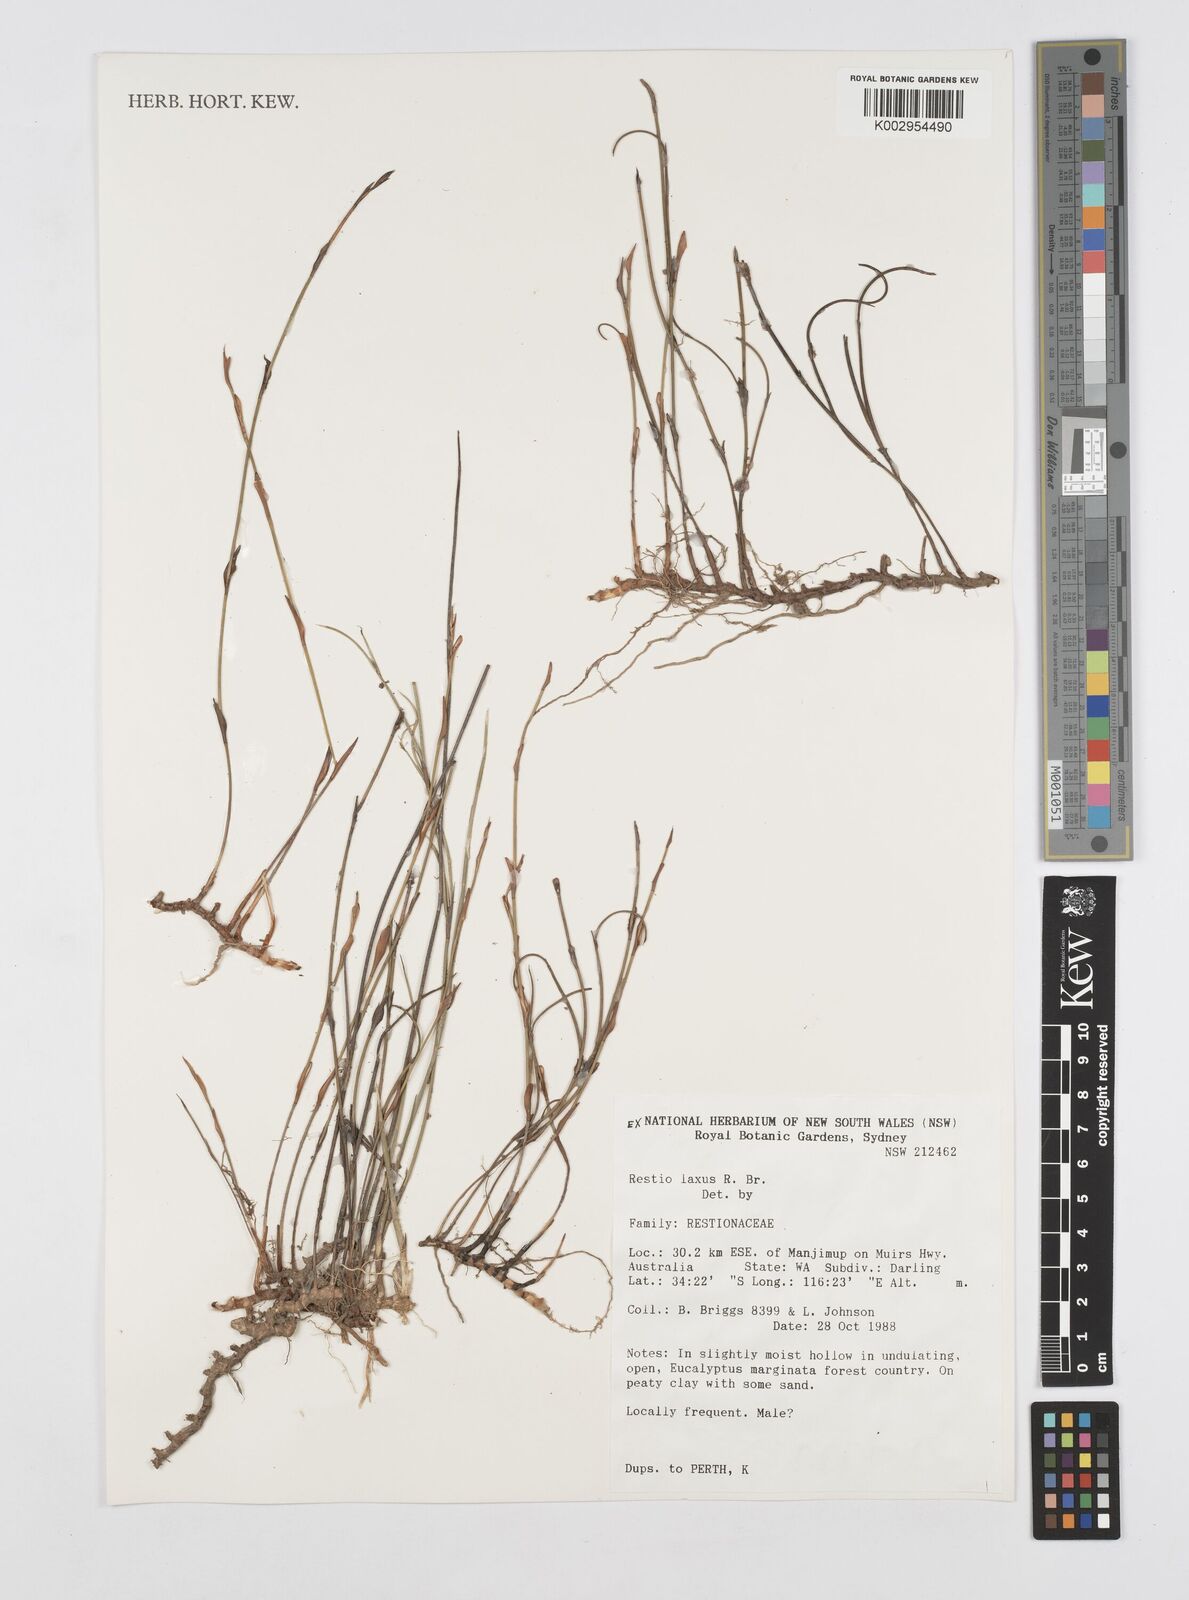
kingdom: Plantae
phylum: Tracheophyta
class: Liliopsida
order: Poales
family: Restionaceae
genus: Chordifex
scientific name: Chordifex laxus
